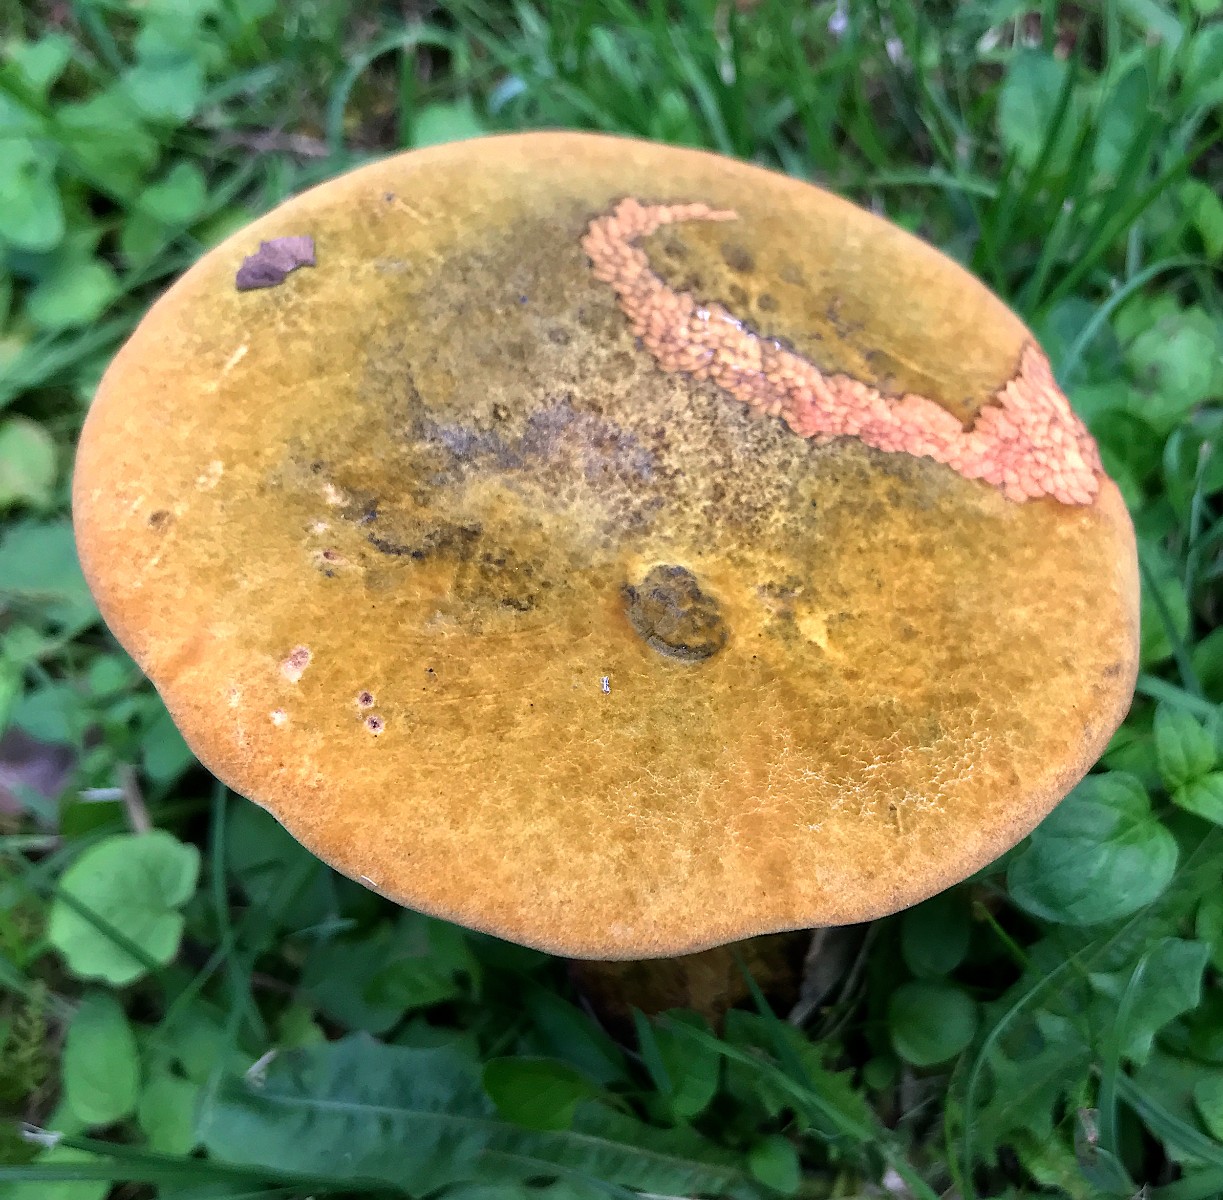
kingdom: Fungi
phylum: Basidiomycota
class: Agaricomycetes
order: Boletales
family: Boletaceae
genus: Suillellus
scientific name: Suillellus luridus
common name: netstokket indigorørhat
